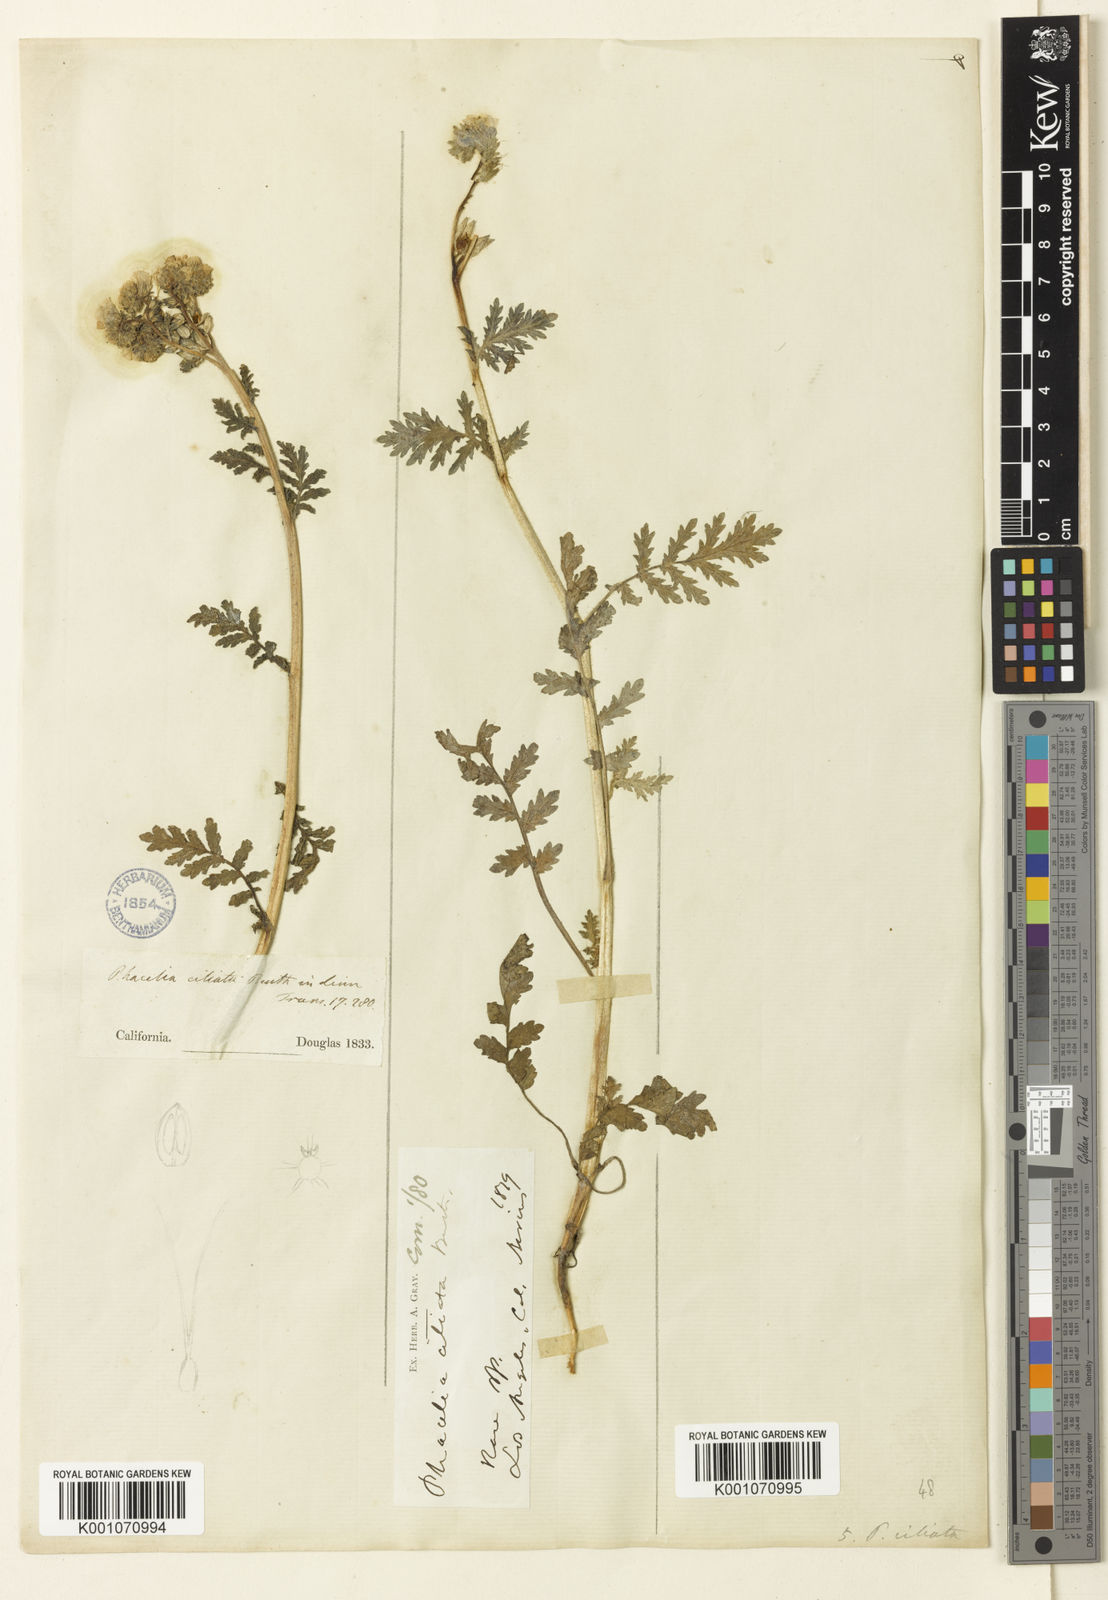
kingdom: Plantae
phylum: Tracheophyta
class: Magnoliopsida
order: Boraginales
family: Hydrophyllaceae
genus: Phacelia
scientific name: Phacelia ciliata
